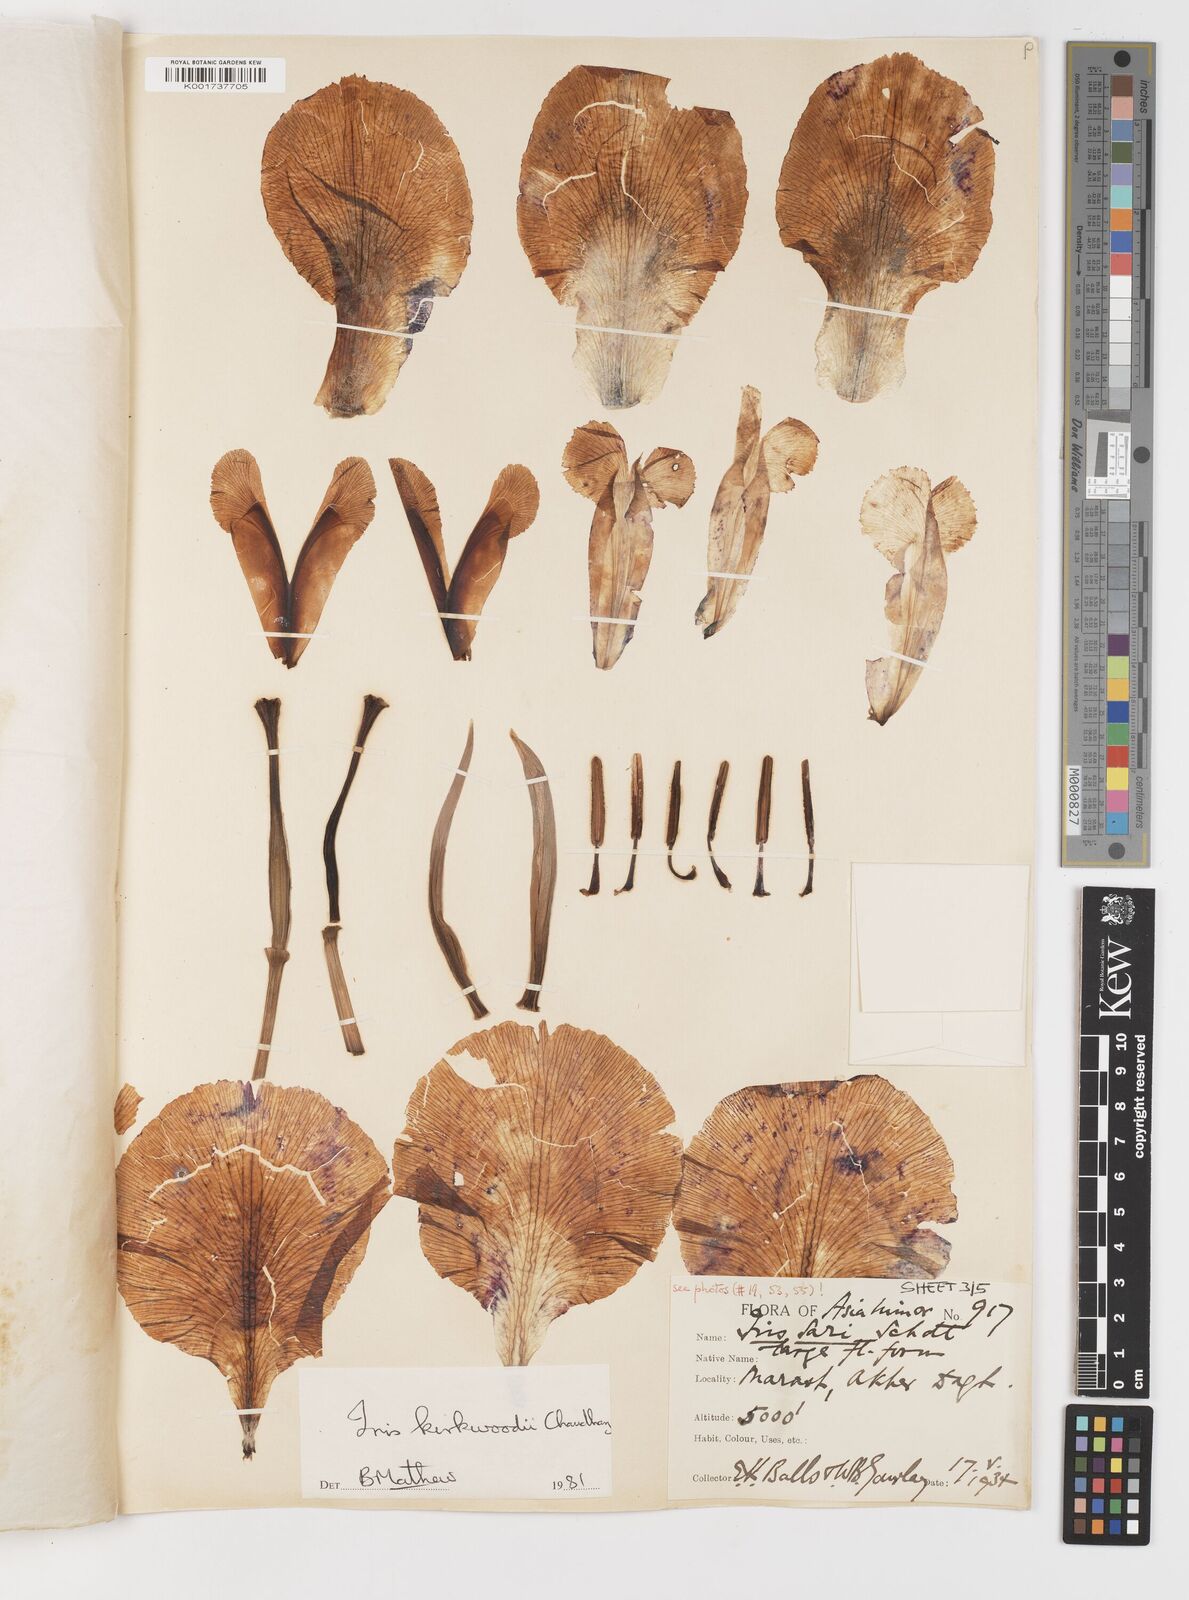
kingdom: Plantae
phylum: Tracheophyta
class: Liliopsida
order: Asparagales
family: Iridaceae
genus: Iris
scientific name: Iris kirkwoodiae
